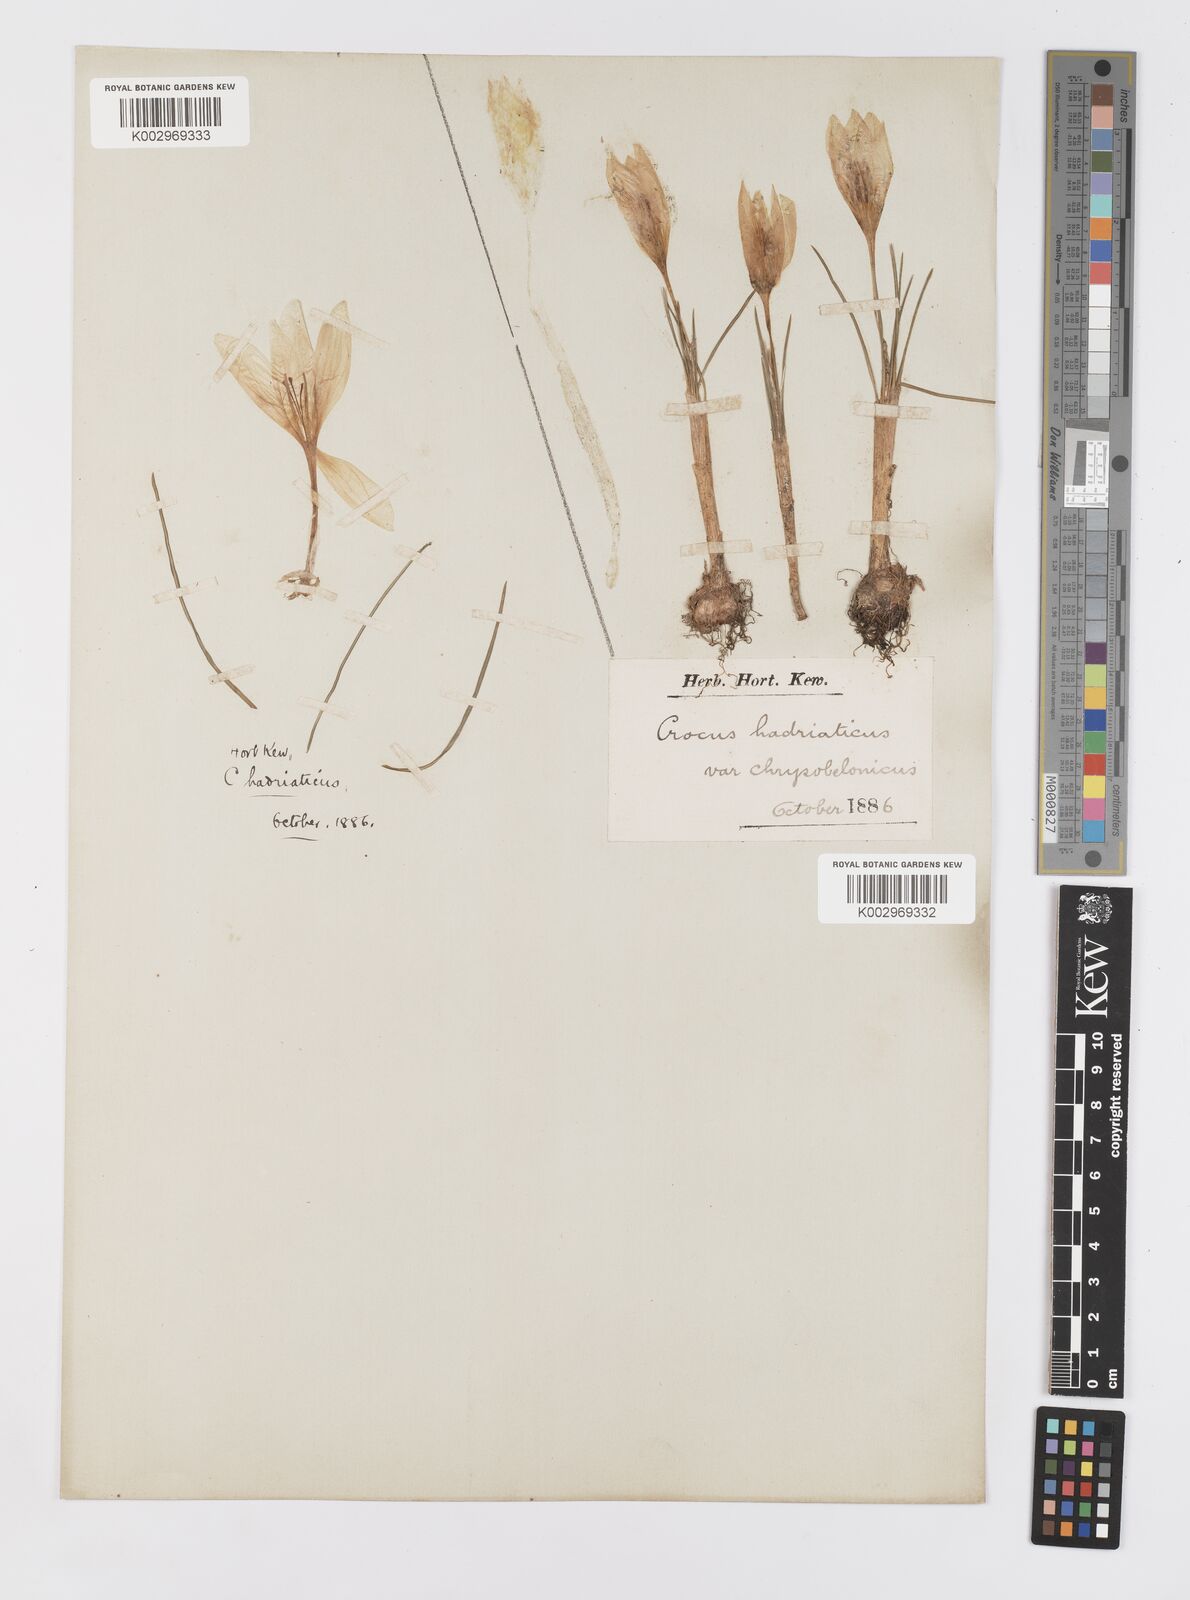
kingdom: Plantae
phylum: Tracheophyta
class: Liliopsida
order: Asparagales
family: Iridaceae
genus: Crocus
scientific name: Crocus hadriaticus
